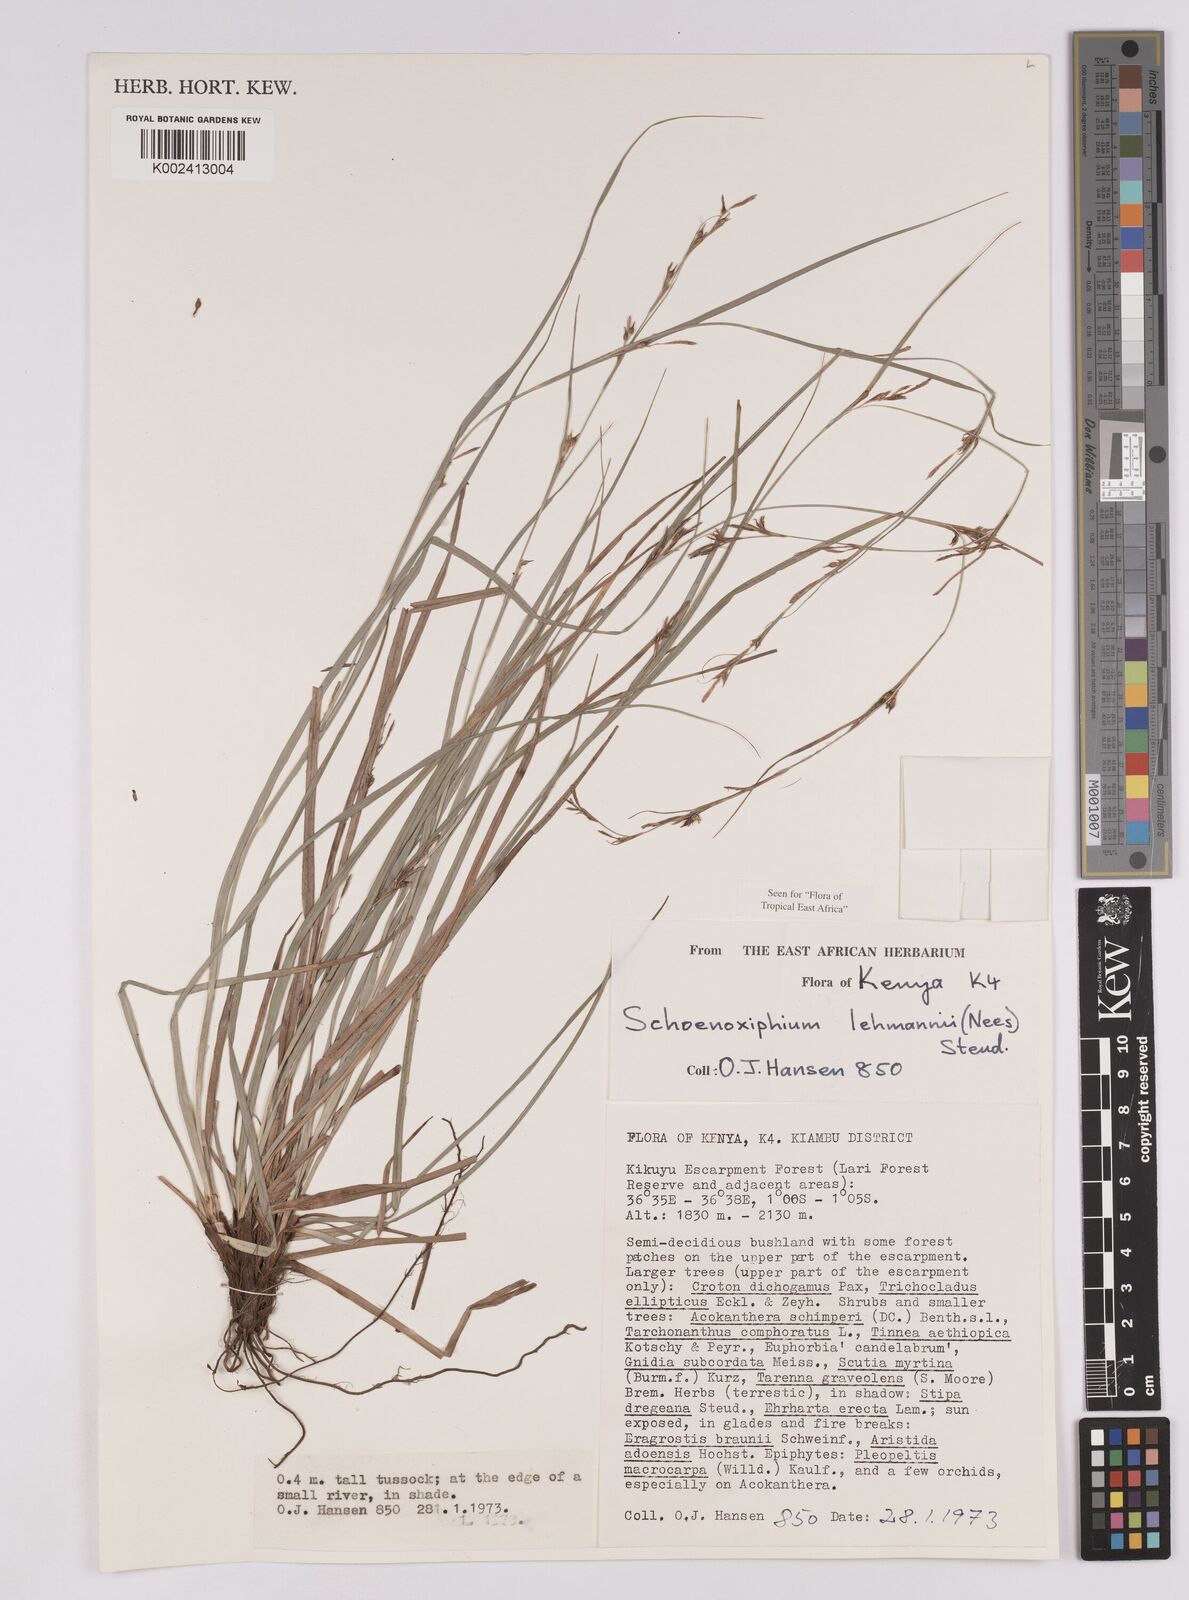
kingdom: Plantae
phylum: Tracheophyta
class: Liliopsida
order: Poales
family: Cyperaceae
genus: Carex
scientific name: Carex uhligii
